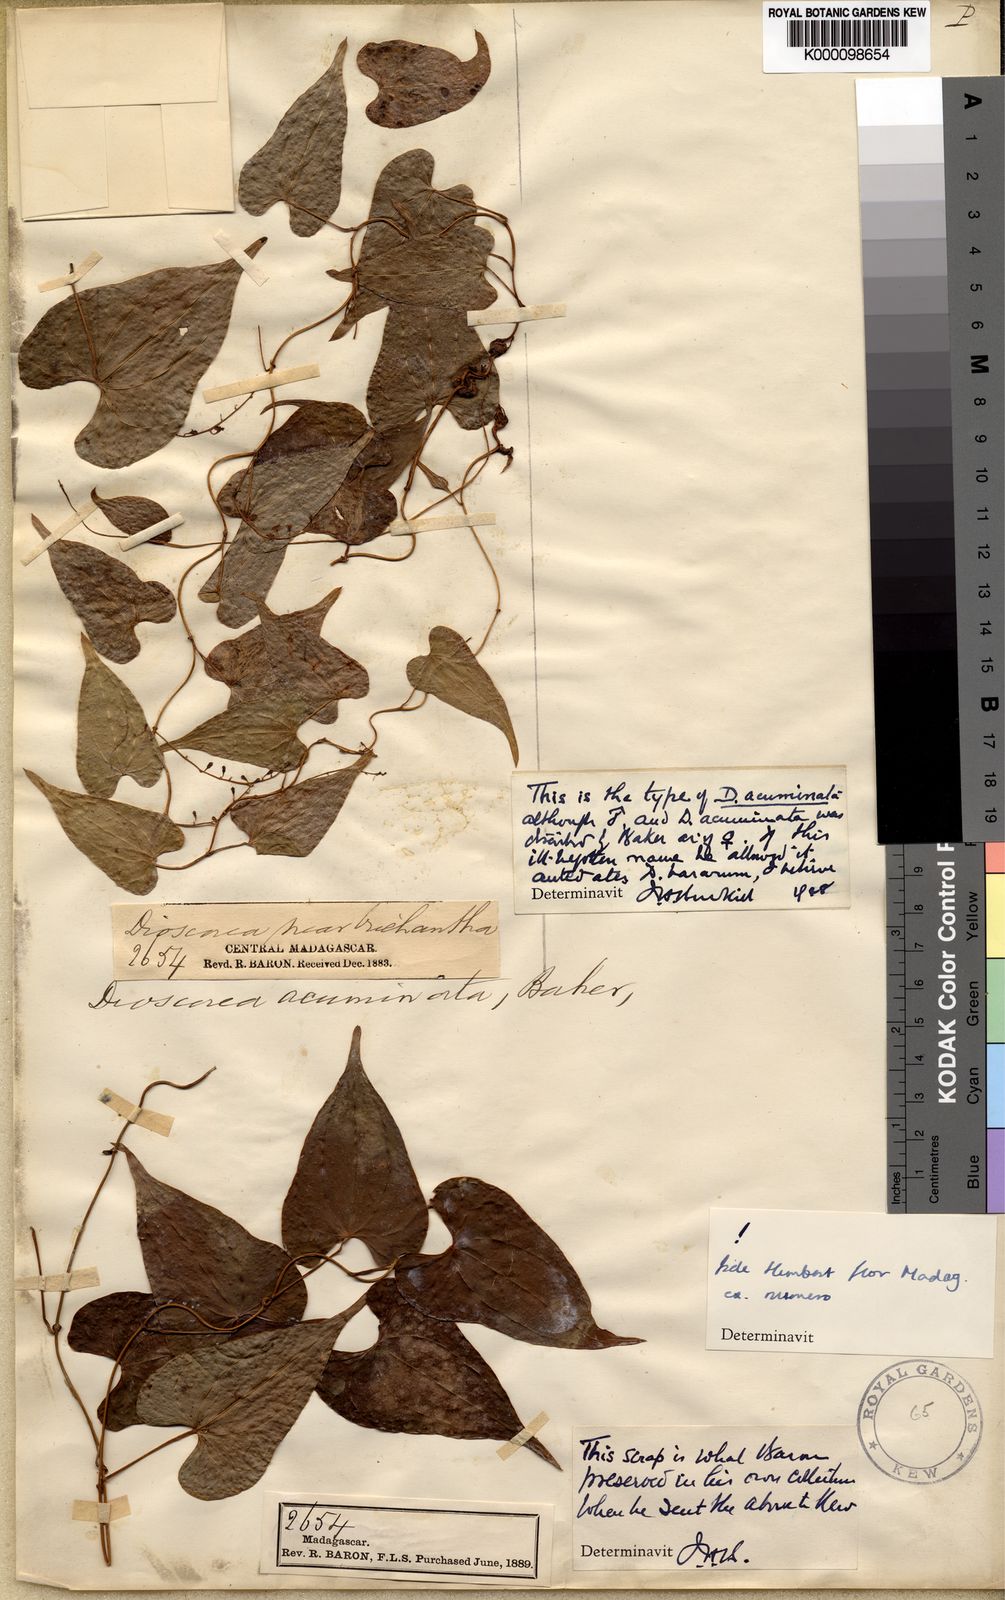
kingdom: Plantae
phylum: Tracheophyta
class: Liliopsida
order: Dioscoreales
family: Dioscoreaceae
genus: Dioscorea
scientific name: Dioscorea acuminata
